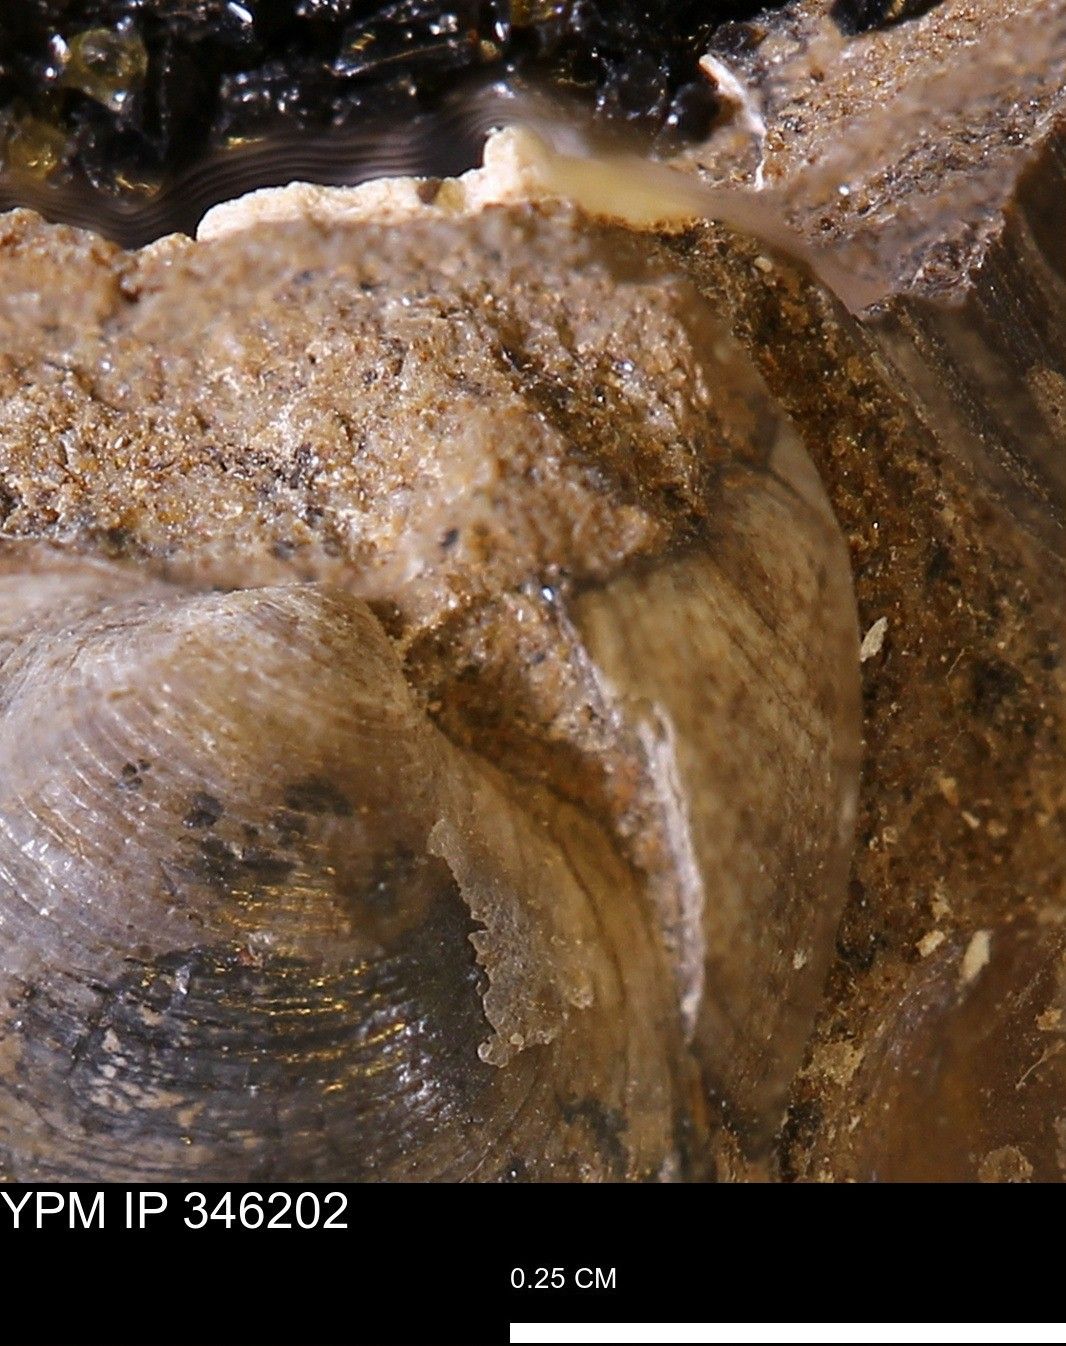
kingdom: Animalia
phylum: Mollusca
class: Bivalvia
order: Arcida
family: Limopsidae
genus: Limopsis
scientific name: Limopsis
